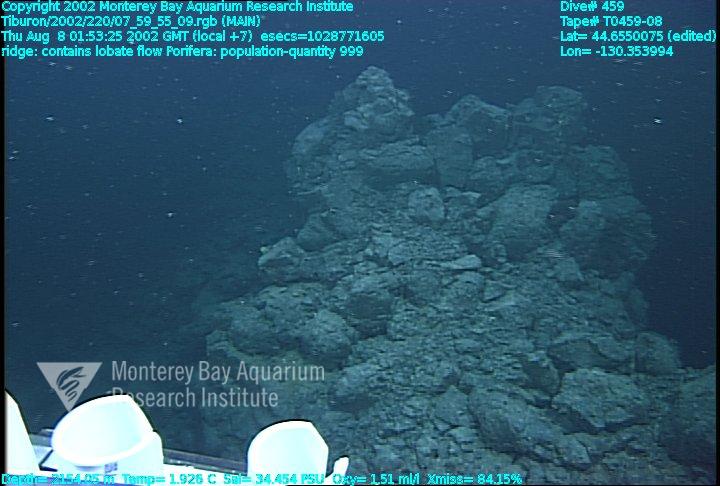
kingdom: Animalia
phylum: Porifera
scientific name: Porifera
